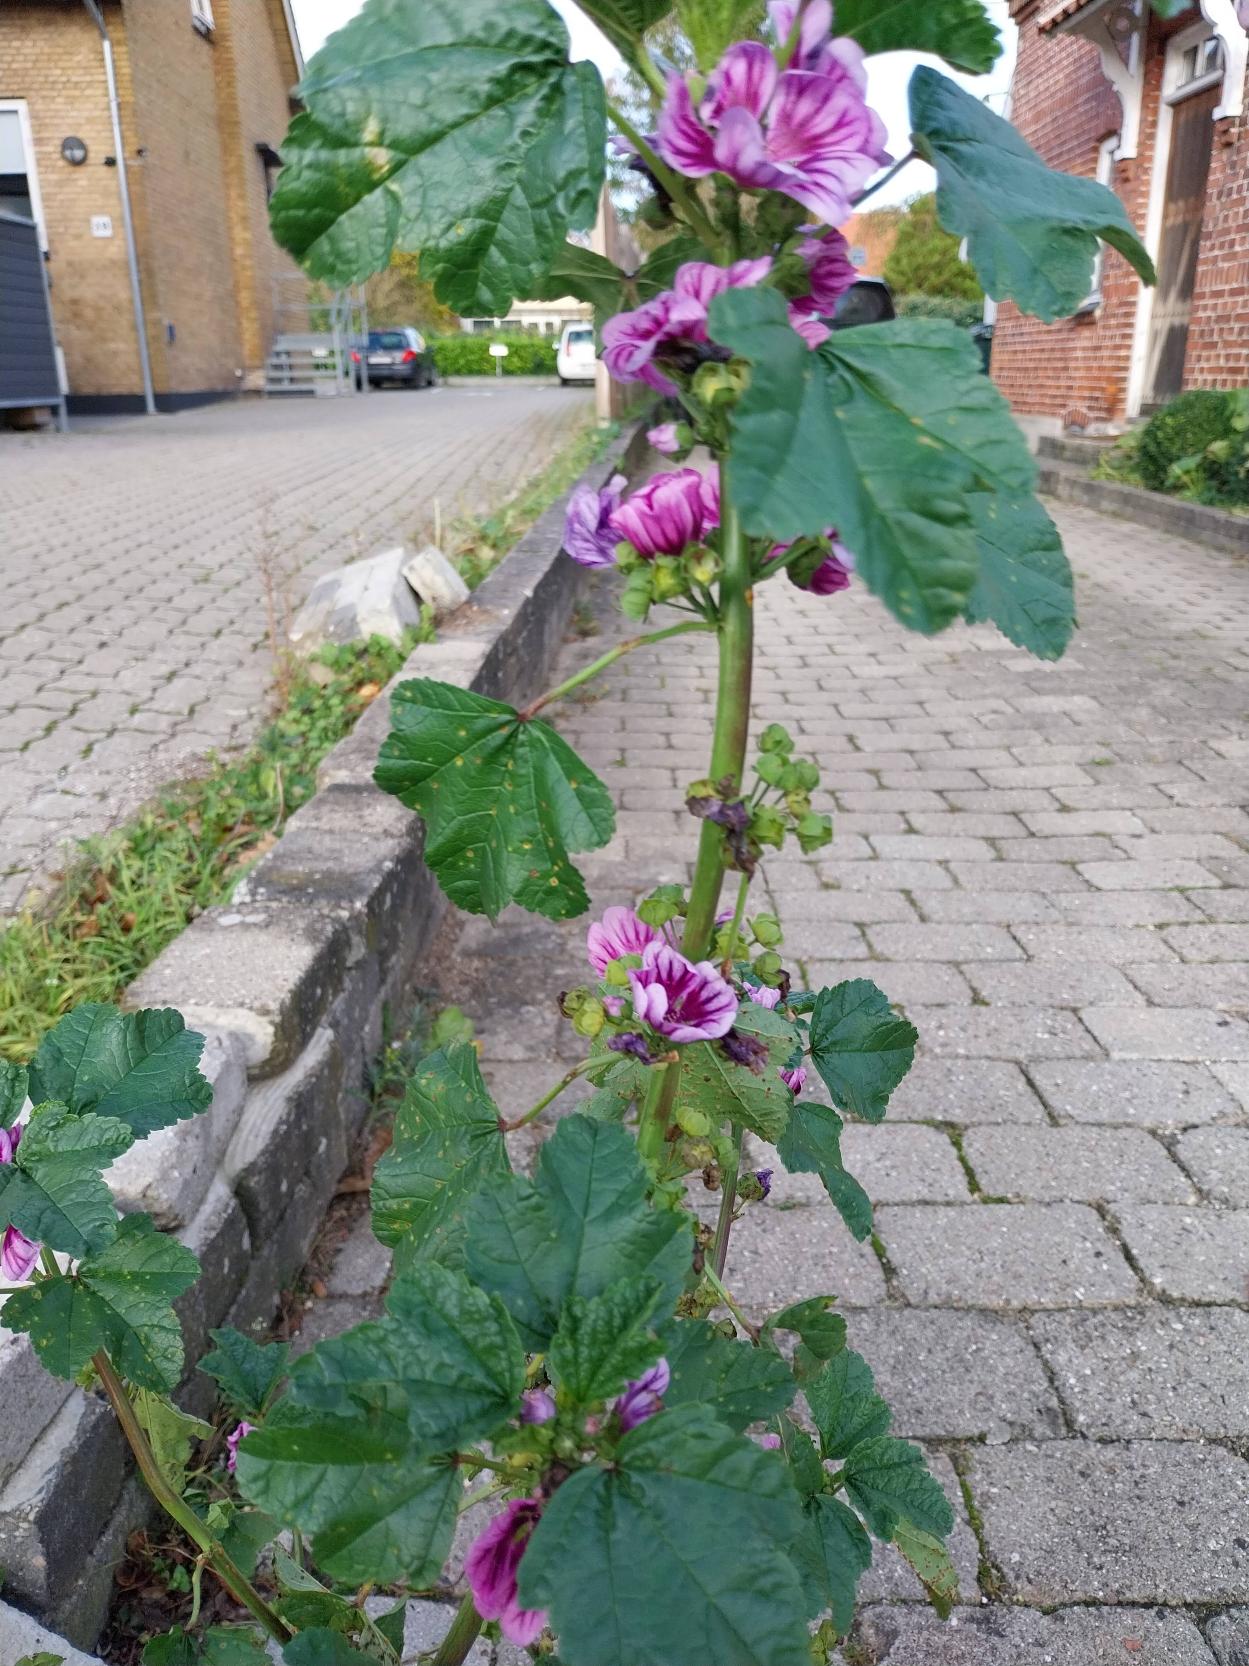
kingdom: Plantae
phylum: Tracheophyta
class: Magnoliopsida
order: Malvales
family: Malvaceae
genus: Malva
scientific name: Malva sylvestris
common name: Stor katost
